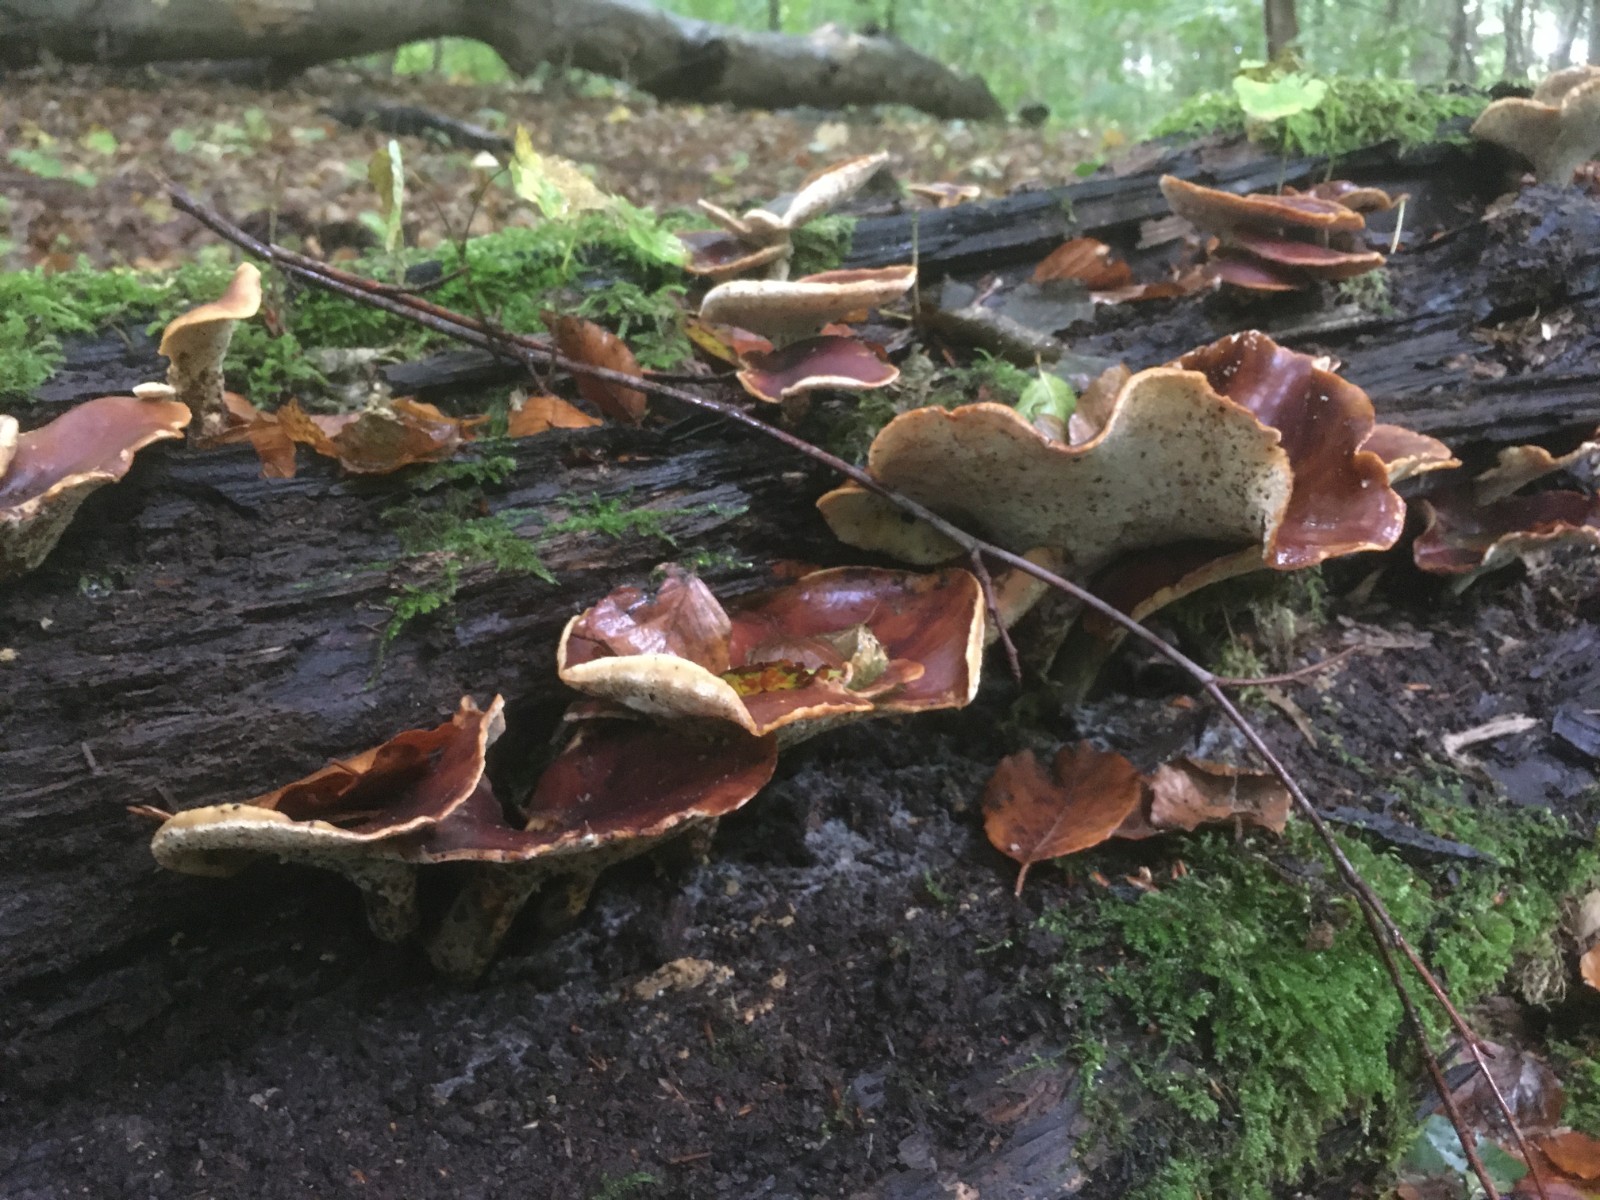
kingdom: Fungi
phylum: Basidiomycota
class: Agaricomycetes
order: Polyporales
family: Polyporaceae
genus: Picipes
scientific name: Picipes badius
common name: kastaniebrun stilkporesvamp
